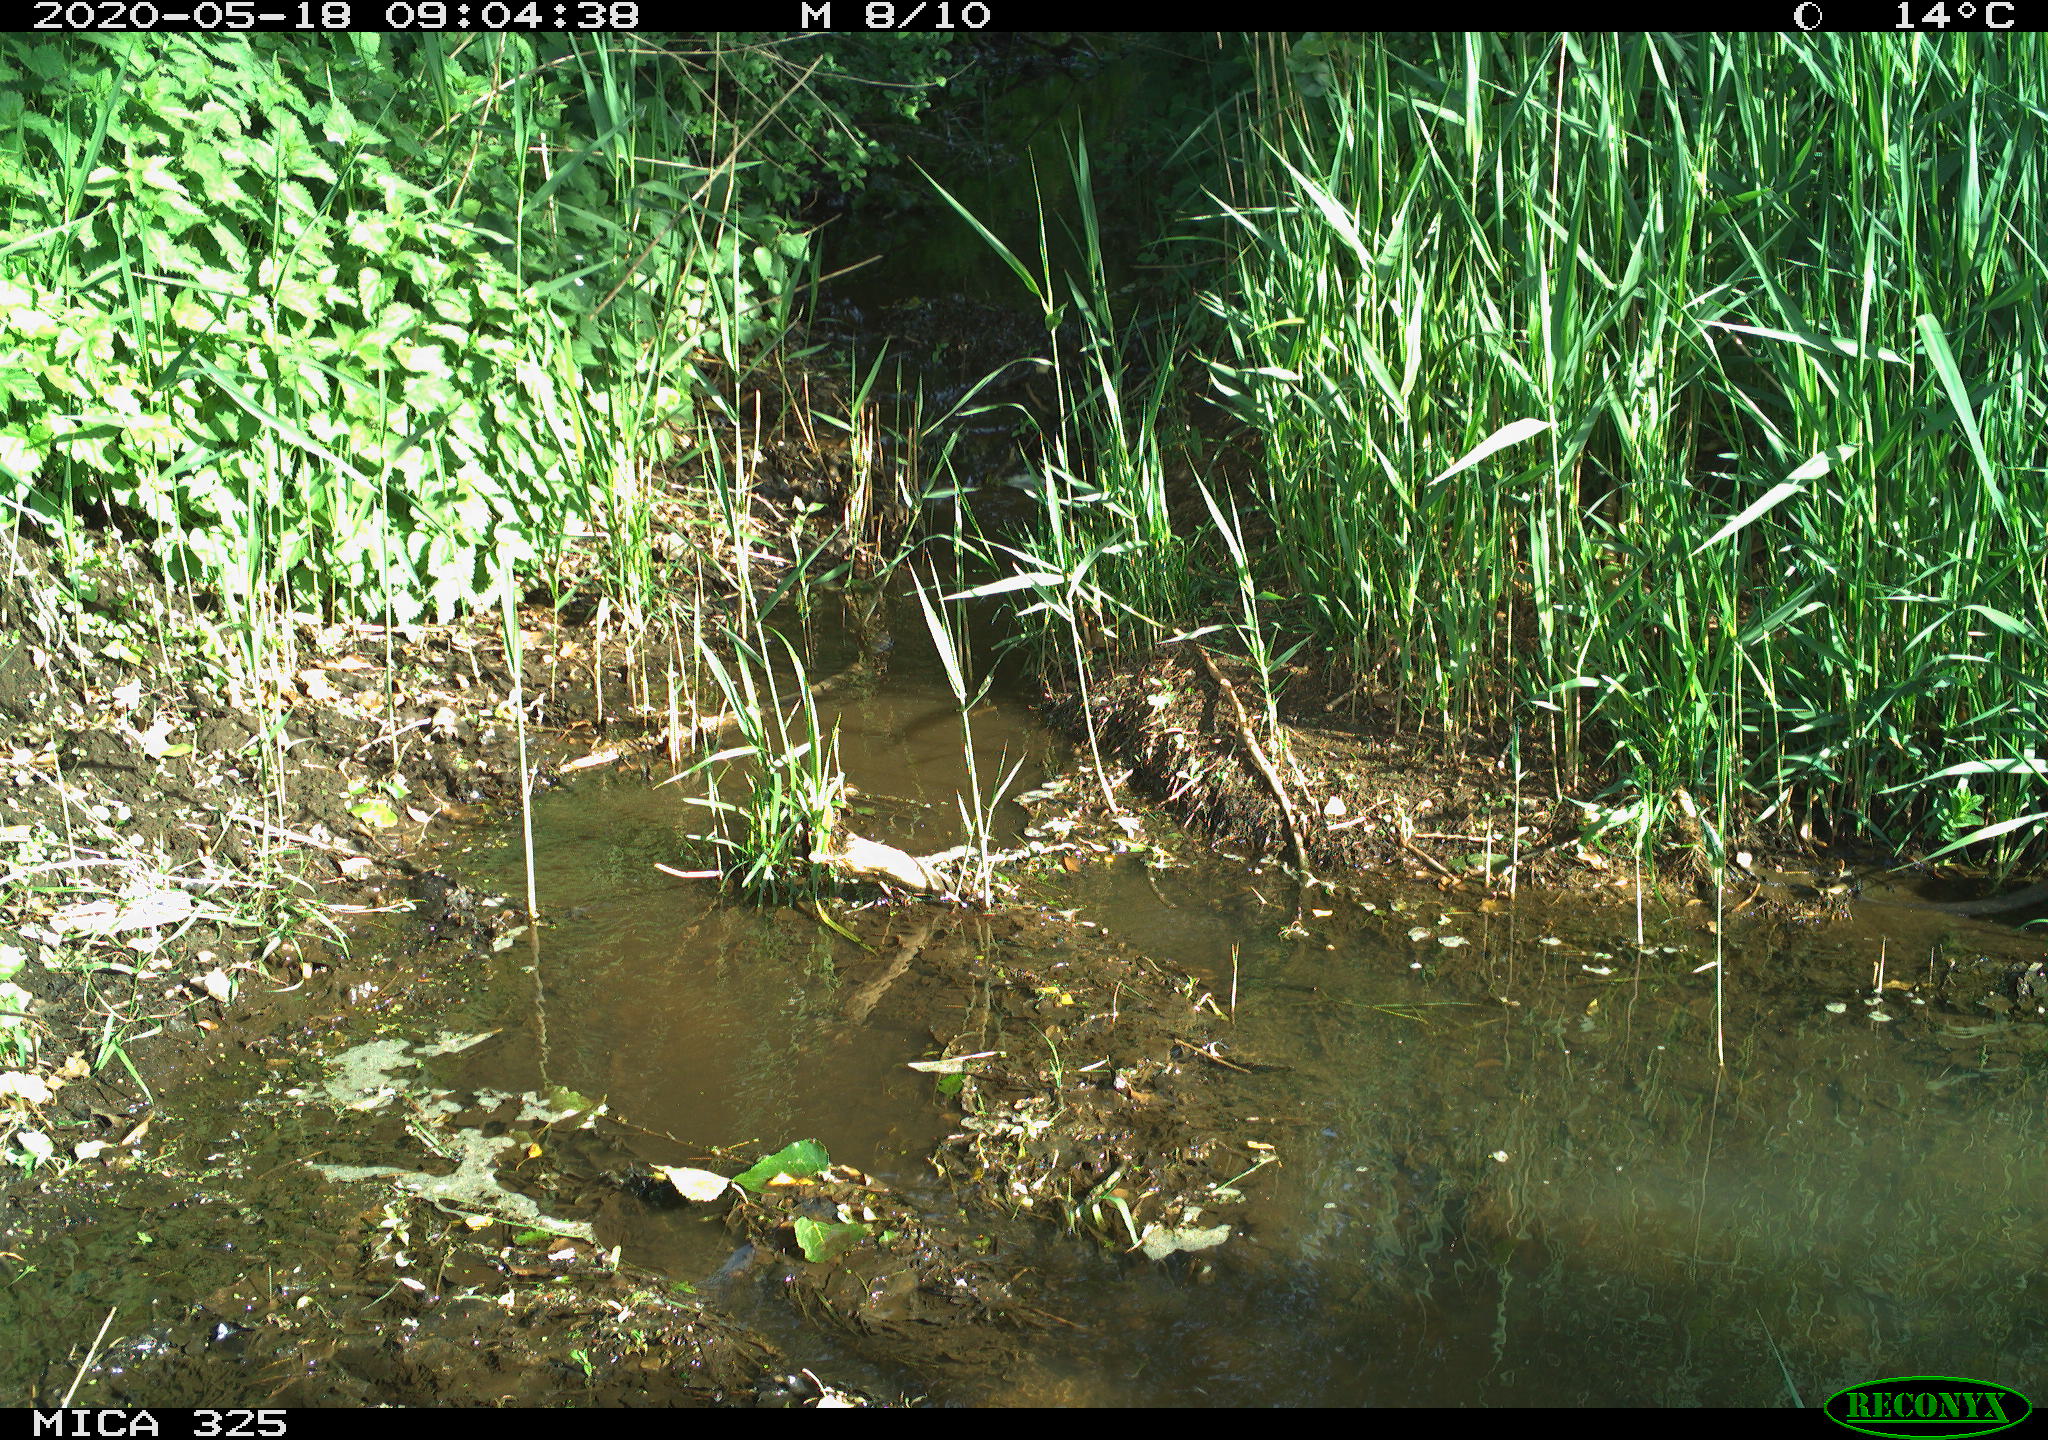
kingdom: Animalia
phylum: Chordata
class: Mammalia
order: Rodentia
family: Myocastoridae
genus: Myocastor
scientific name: Myocastor coypus
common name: Coypu
